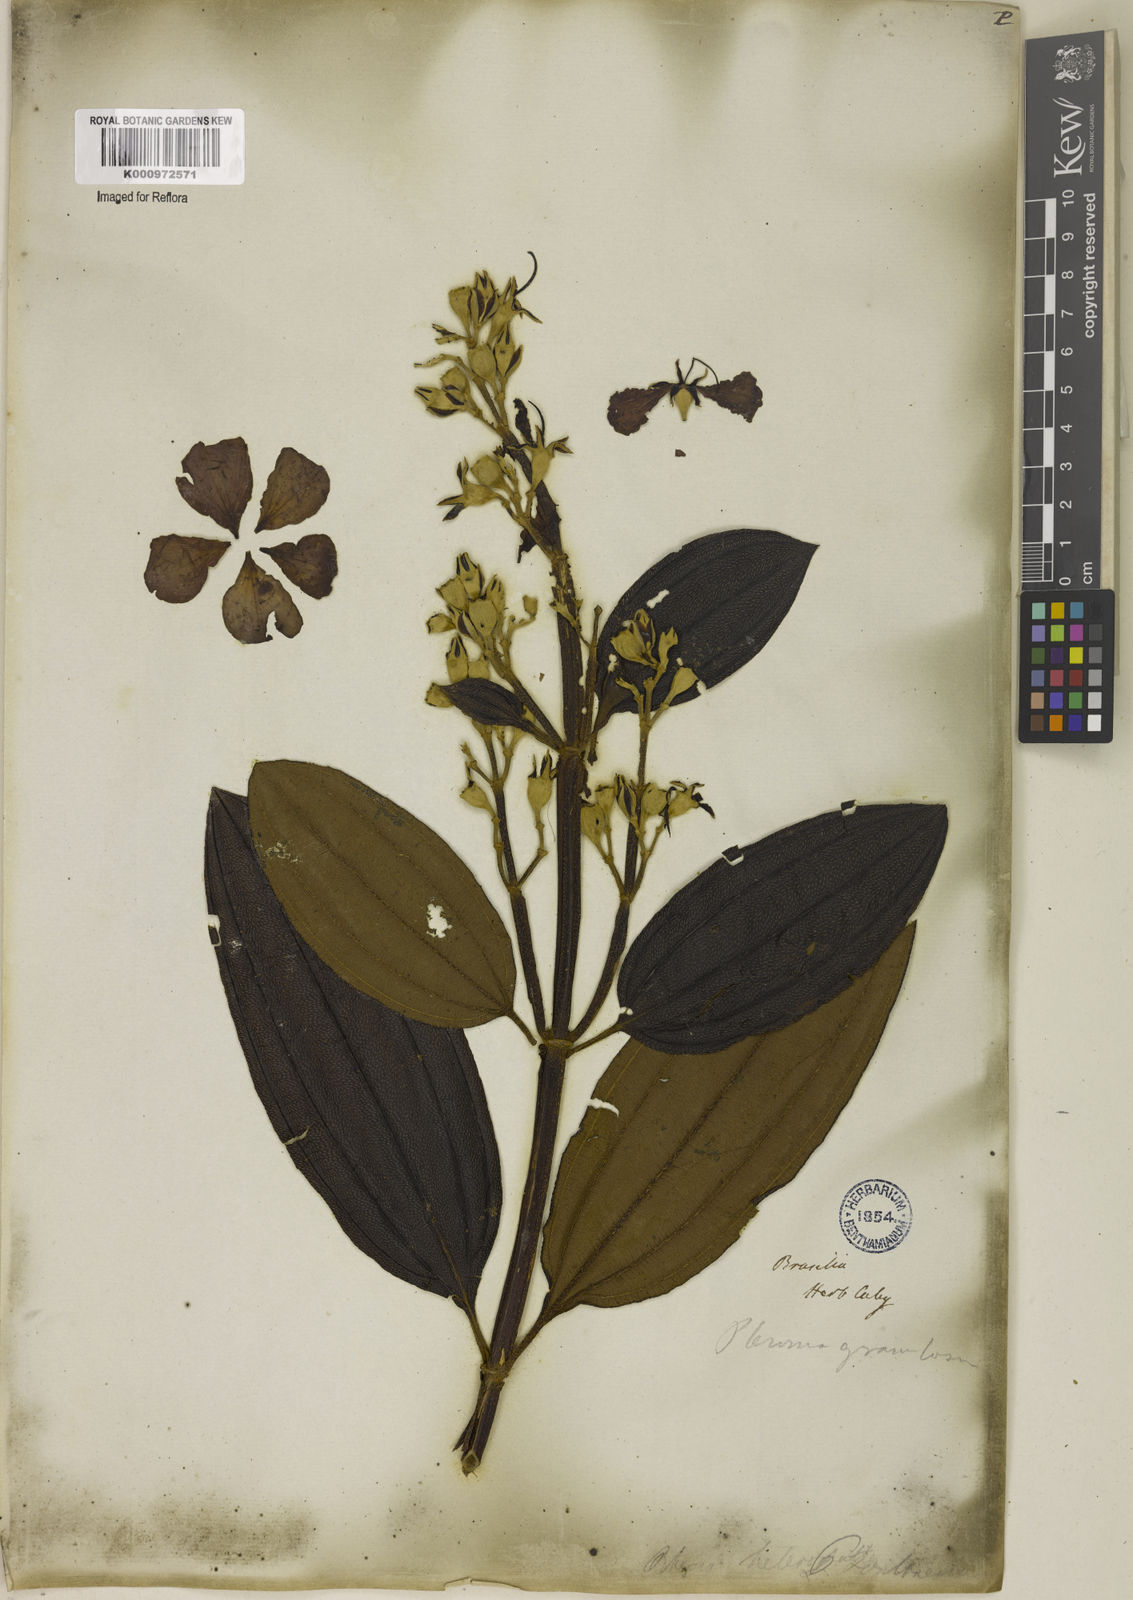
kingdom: Plantae
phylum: Tracheophyta
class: Magnoliopsida
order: Myrtales
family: Melastomataceae
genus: Pleroma
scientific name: Pleroma granulosum
